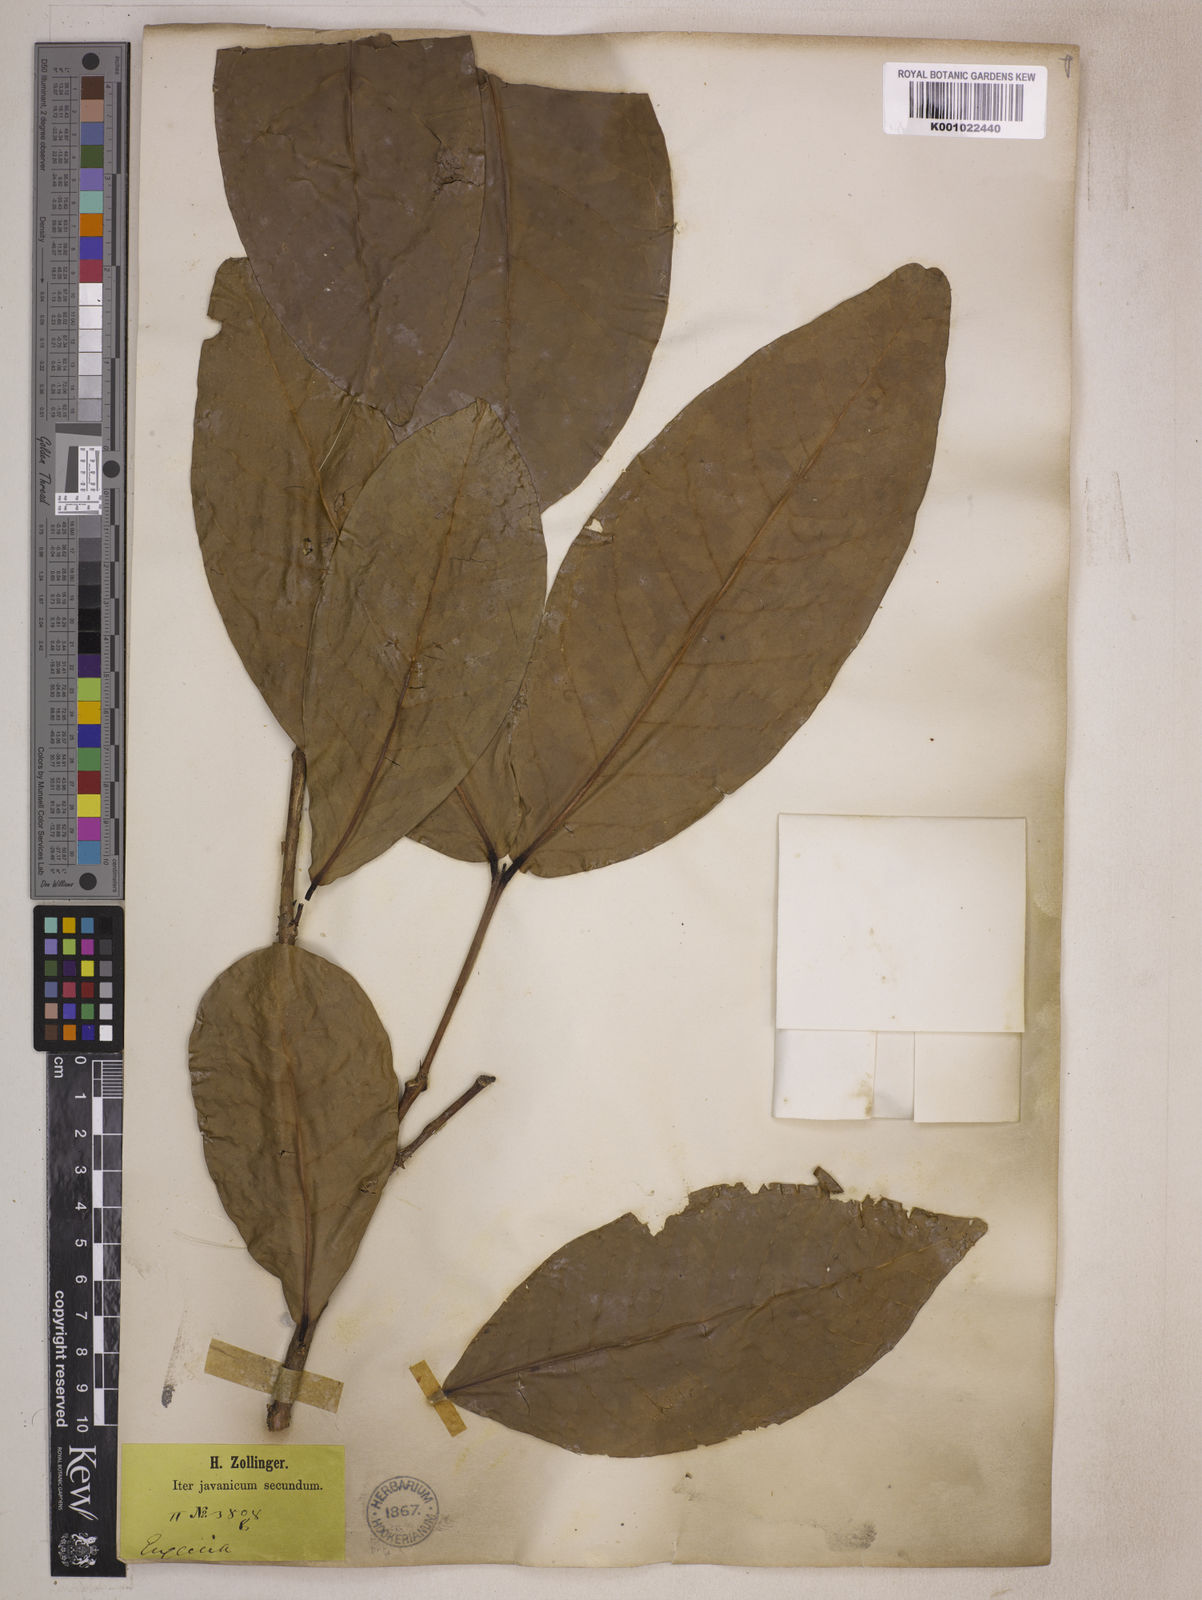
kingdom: Plantae
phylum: Tracheophyta
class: Magnoliopsida
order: Myrtales
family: Myrtaceae
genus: Syzygium
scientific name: Syzygium aqueum
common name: Water-apple
